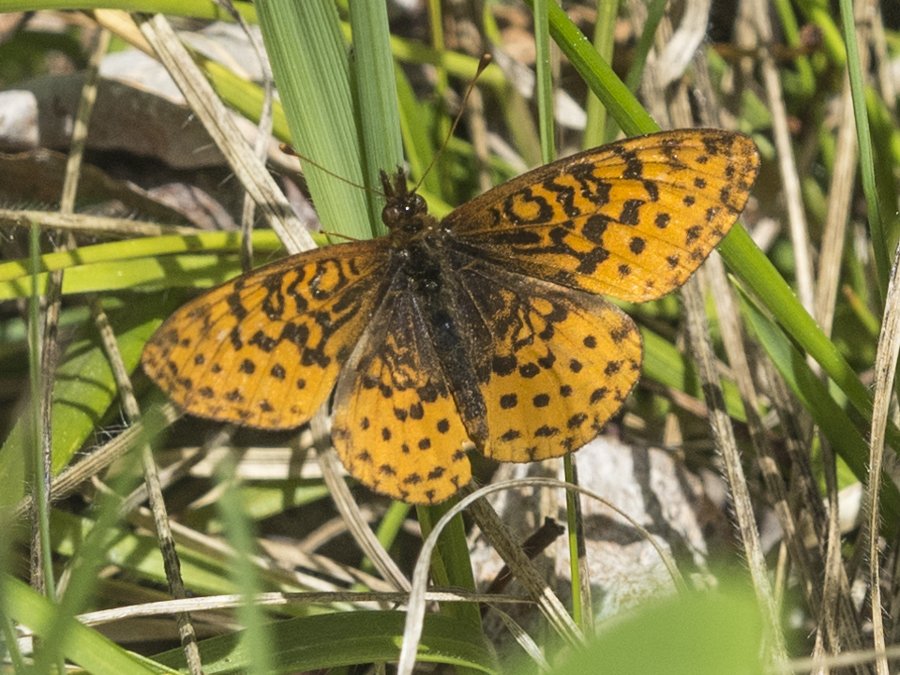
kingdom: Animalia
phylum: Arthropoda
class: Insecta
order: Lepidoptera
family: Nymphalidae
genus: Clossiana
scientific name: Clossiana toddi
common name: Meadow Fritillary
